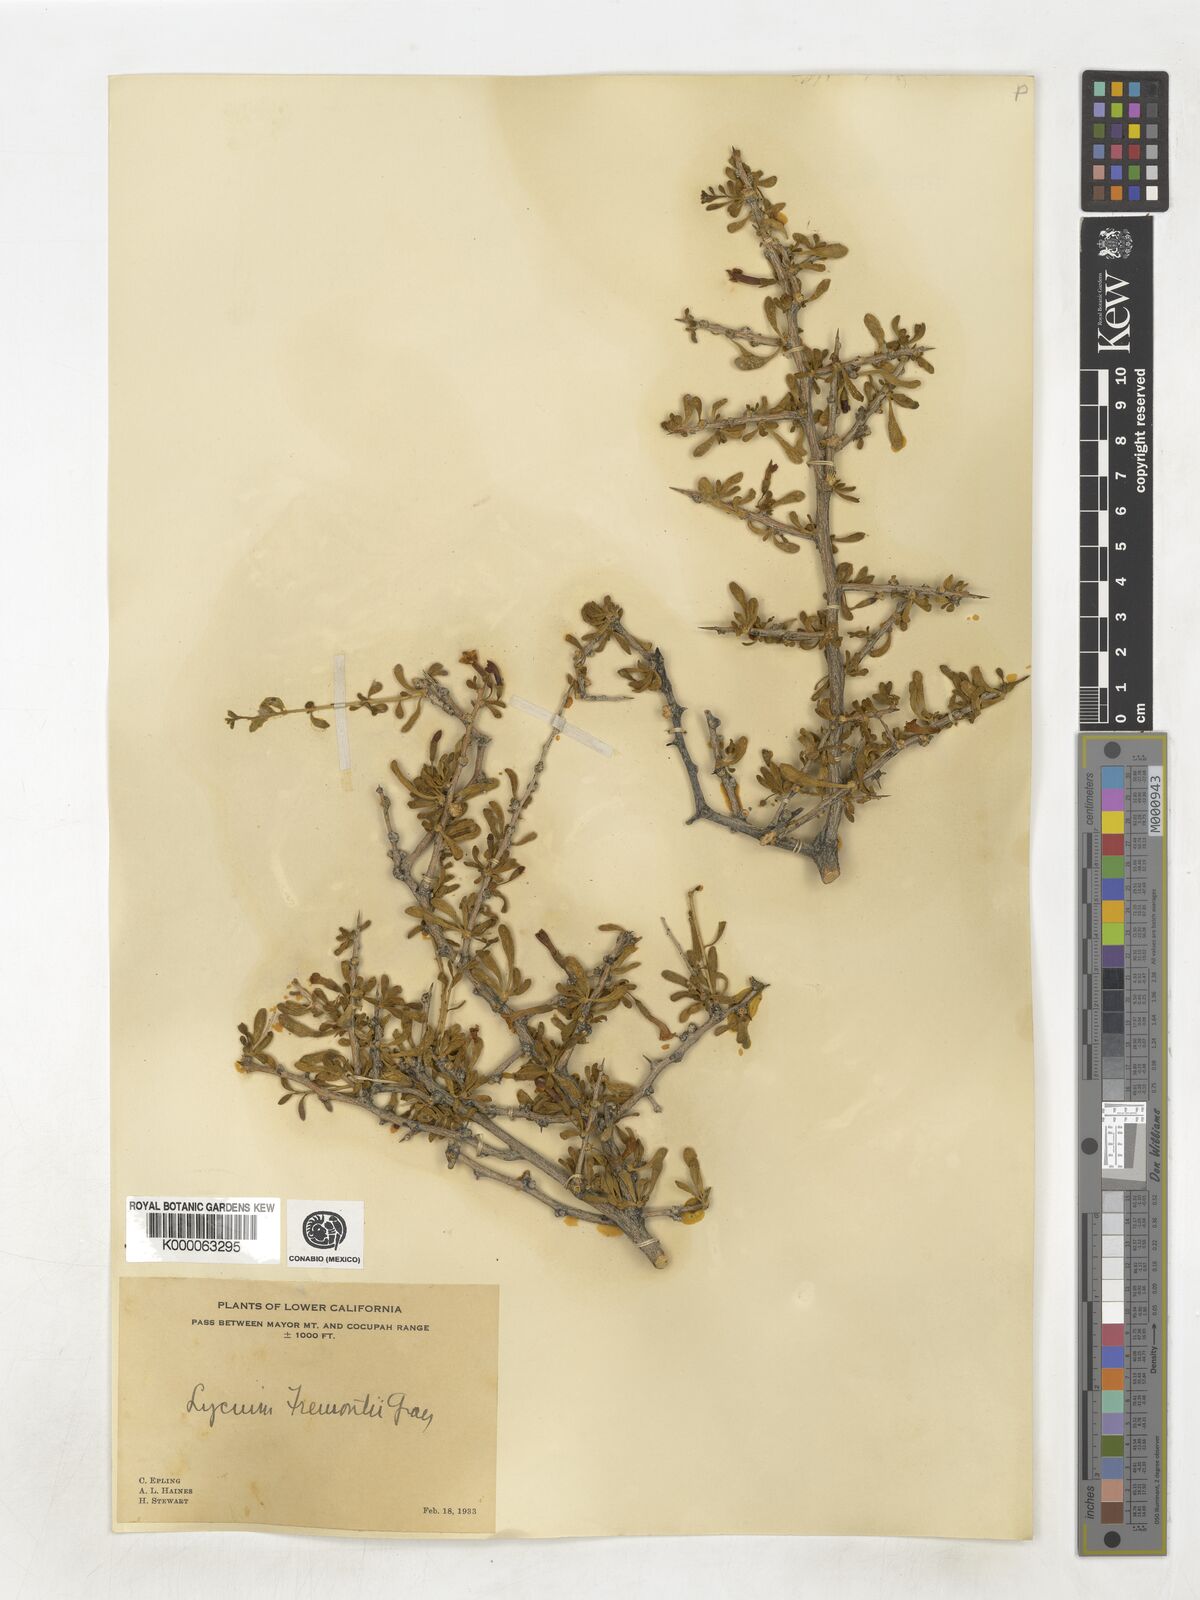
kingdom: Plantae
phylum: Tracheophyta
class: Magnoliopsida
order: Solanales
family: Solanaceae
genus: Lycium
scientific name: Lycium fremontii
